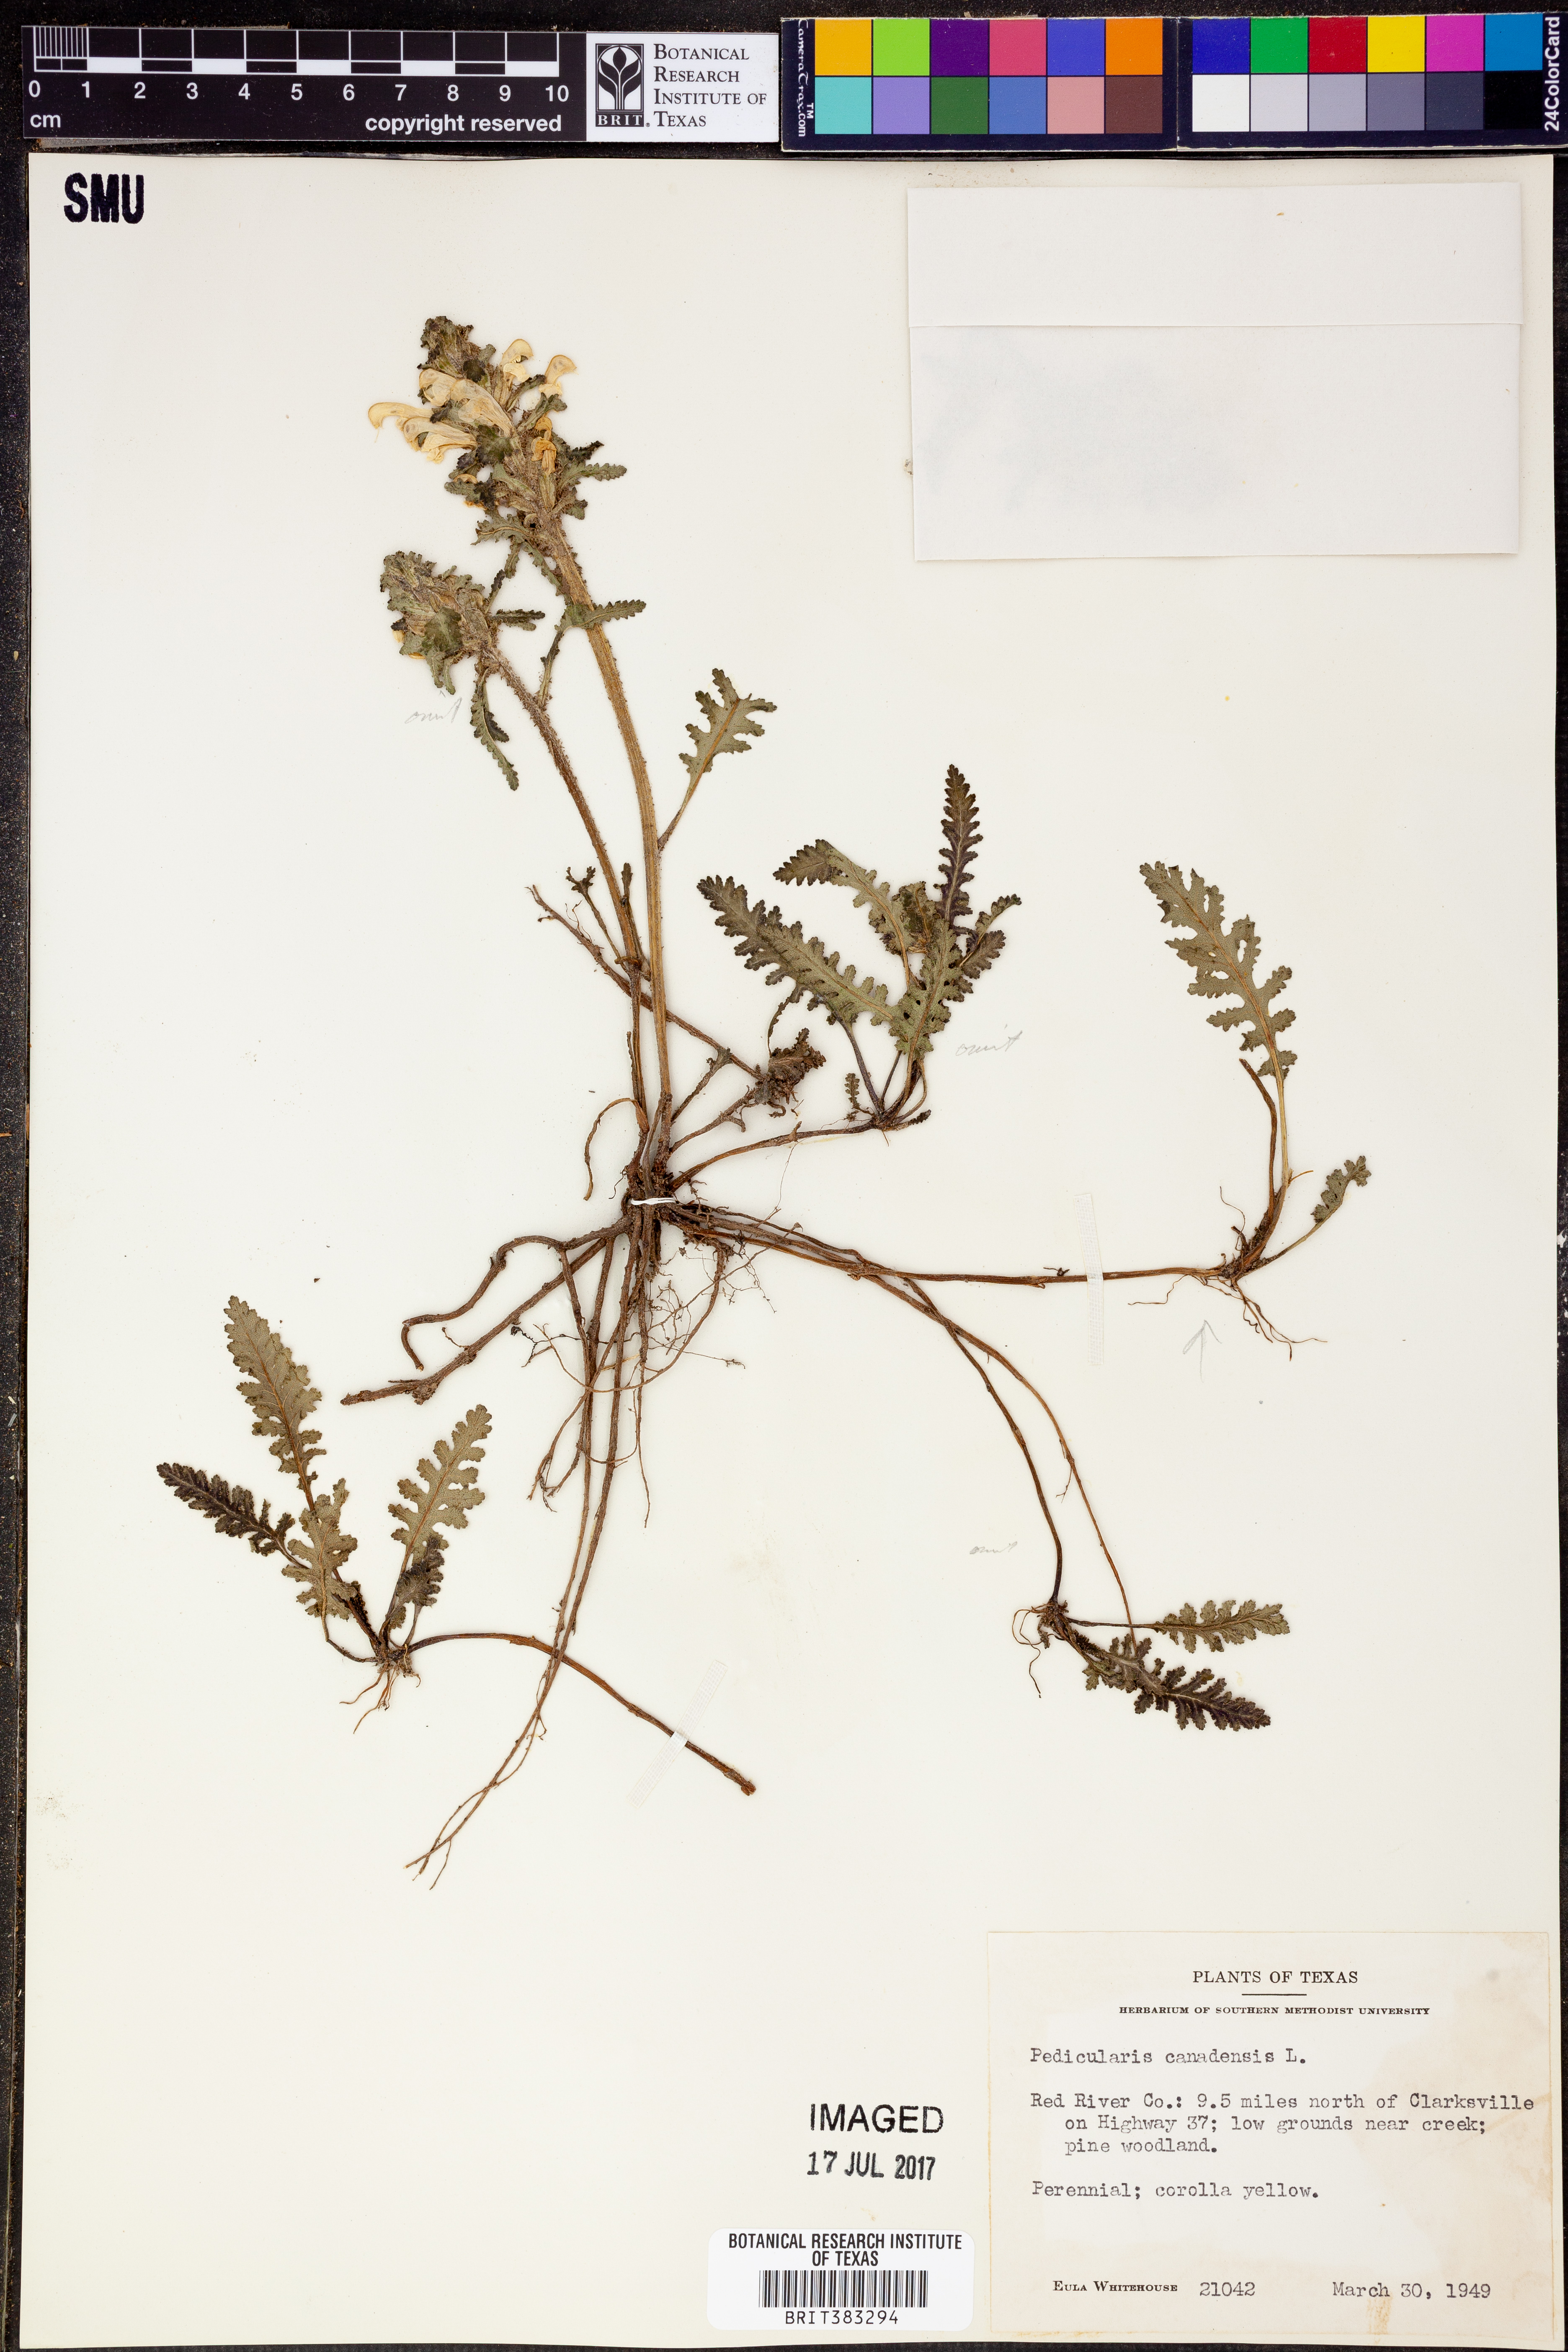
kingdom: Plantae
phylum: Tracheophyta
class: Magnoliopsida
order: Lamiales
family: Orobanchaceae
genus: Pedicularis
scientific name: Pedicularis canadensis
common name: Early lousewort
